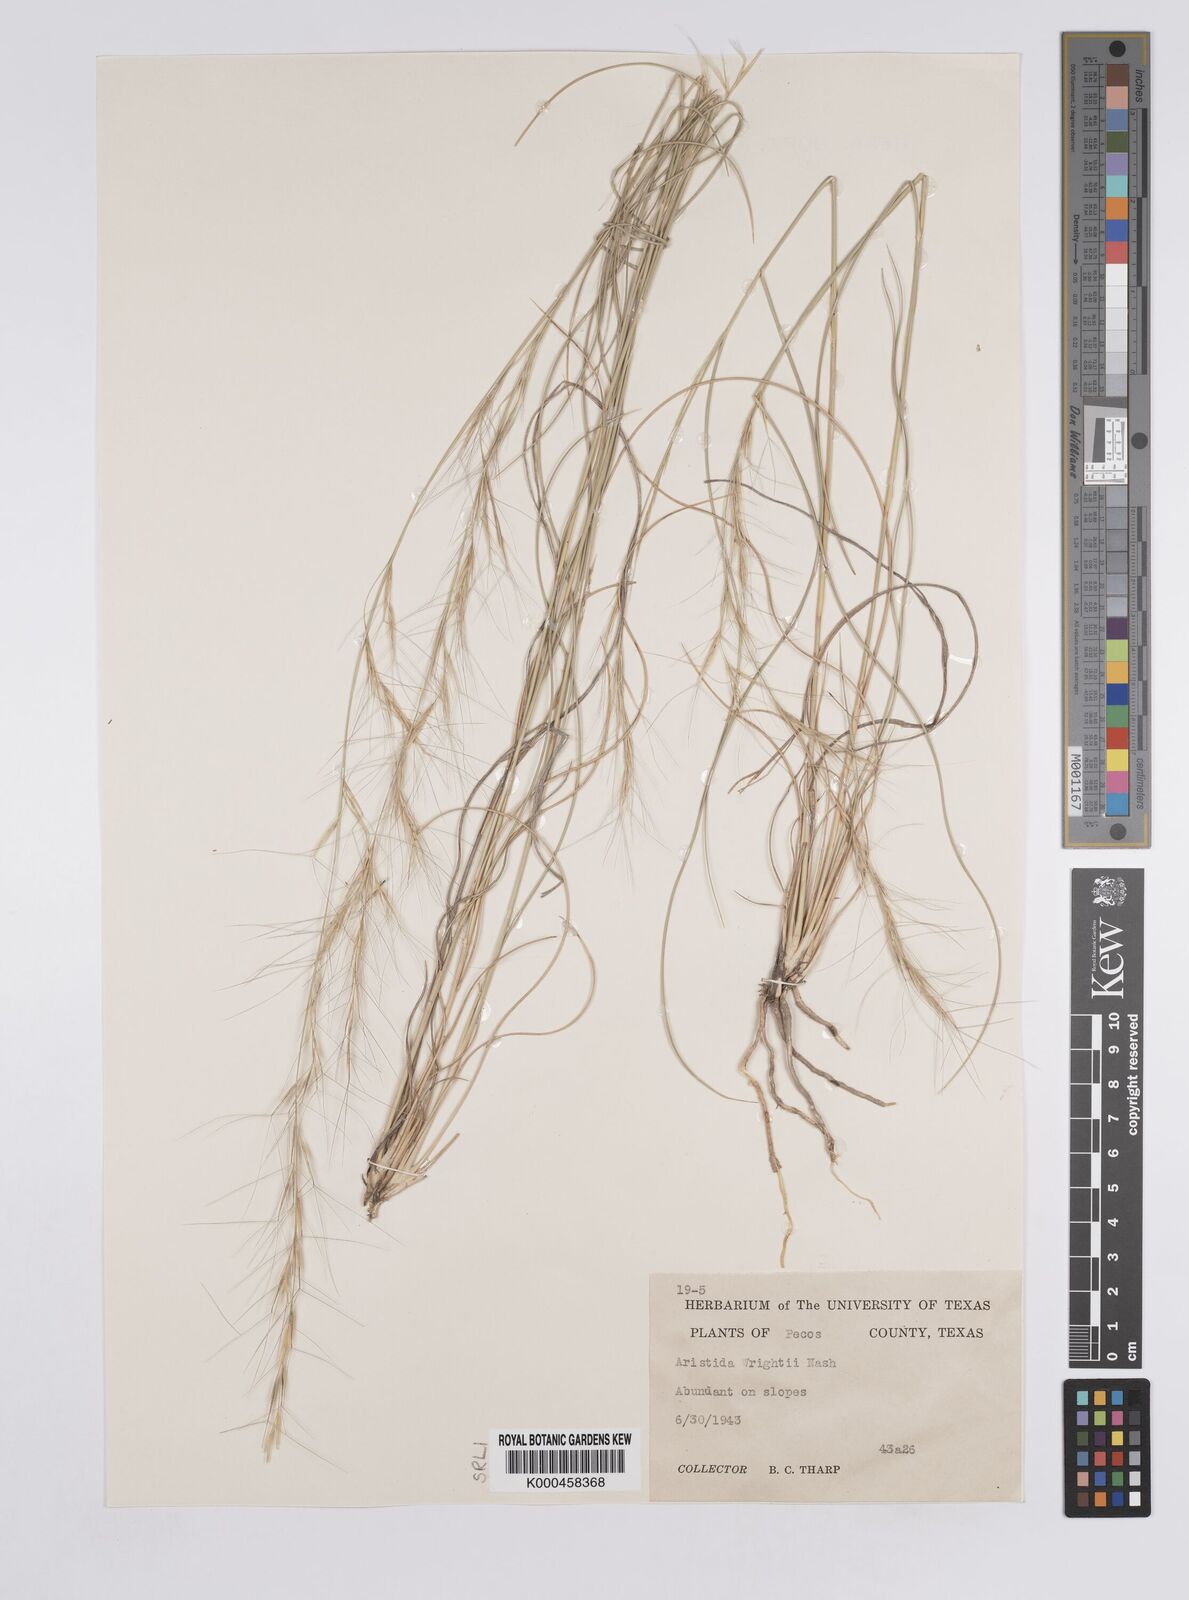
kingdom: Plantae
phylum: Tracheophyta
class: Liliopsida
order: Poales
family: Poaceae
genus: Aristida
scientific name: Aristida wrightii
